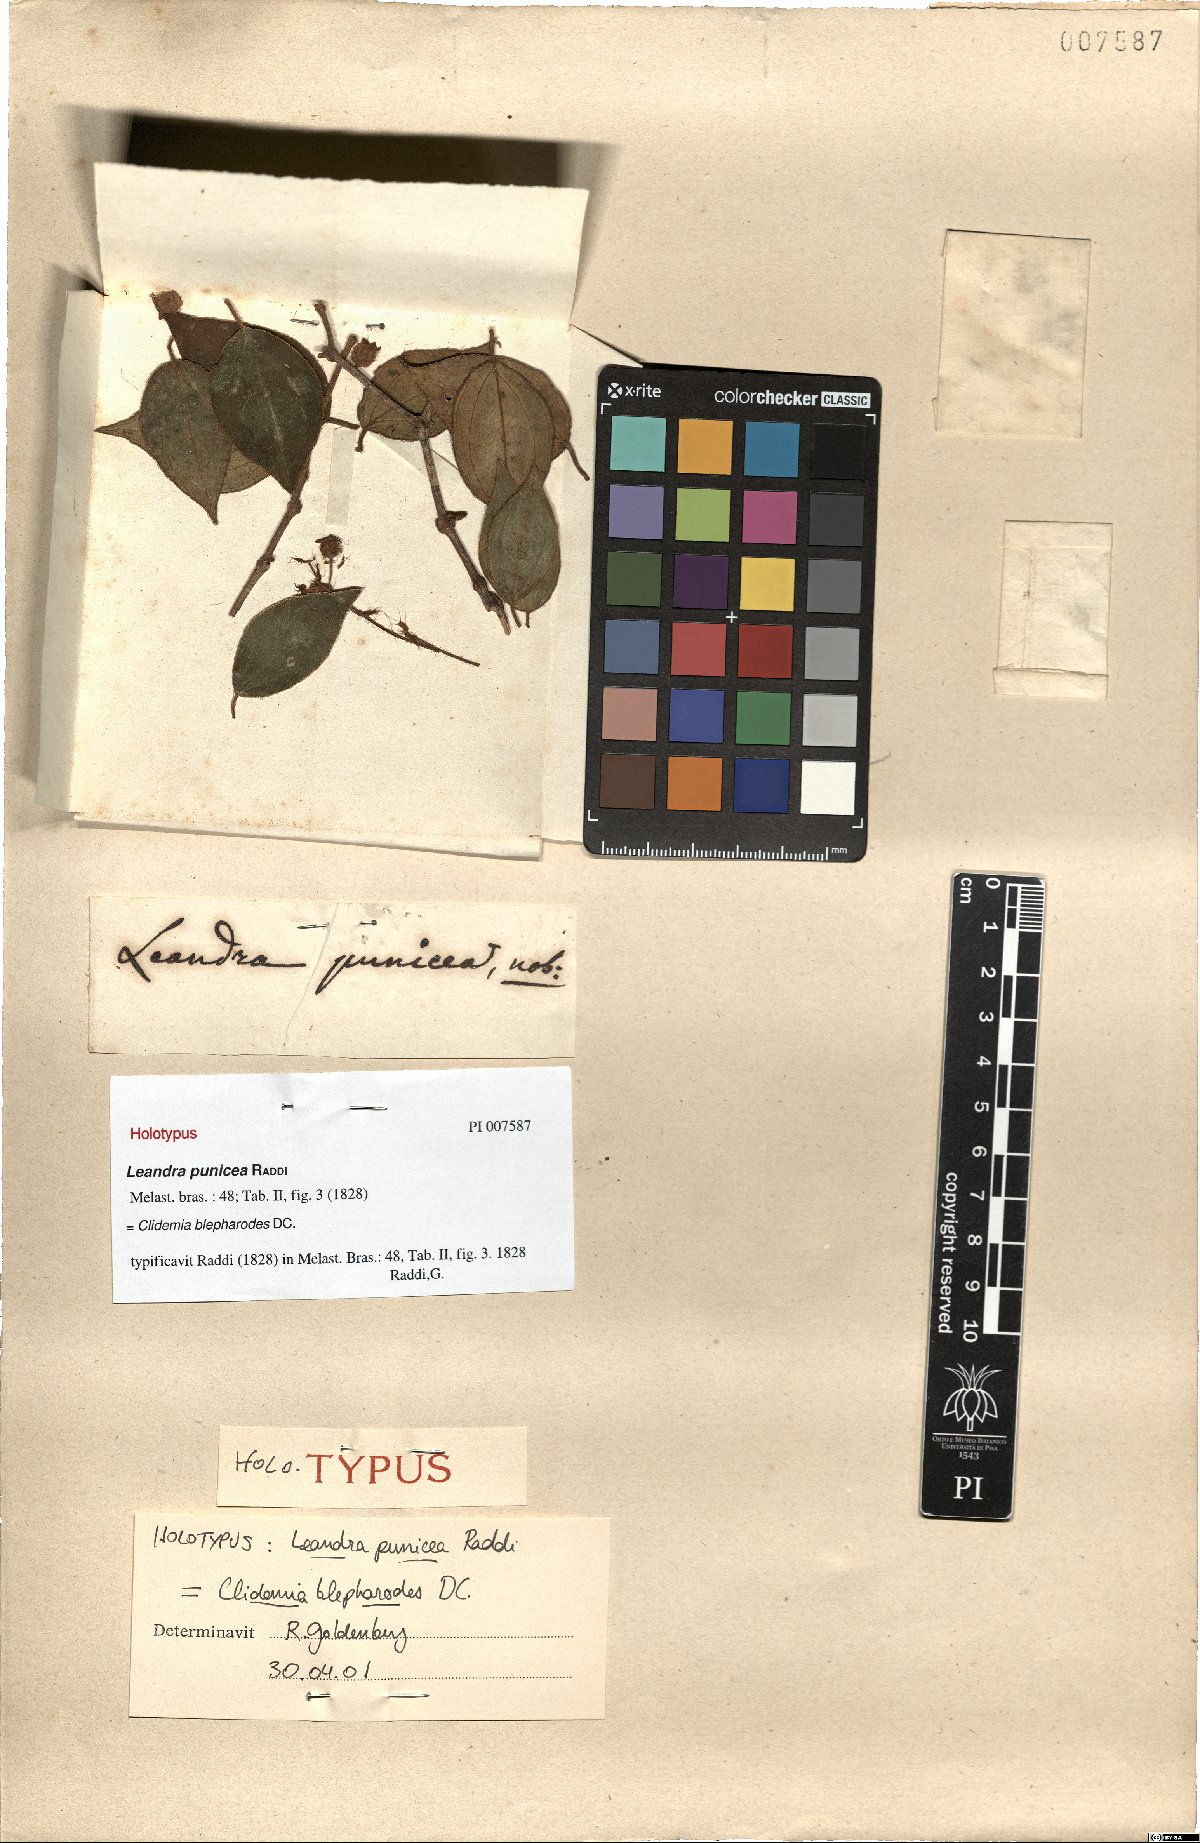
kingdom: Plantae
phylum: Tracheophyta
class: Magnoliopsida
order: Myrtales
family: Melastomataceae
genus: Miconia
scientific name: Miconia blepharodes
